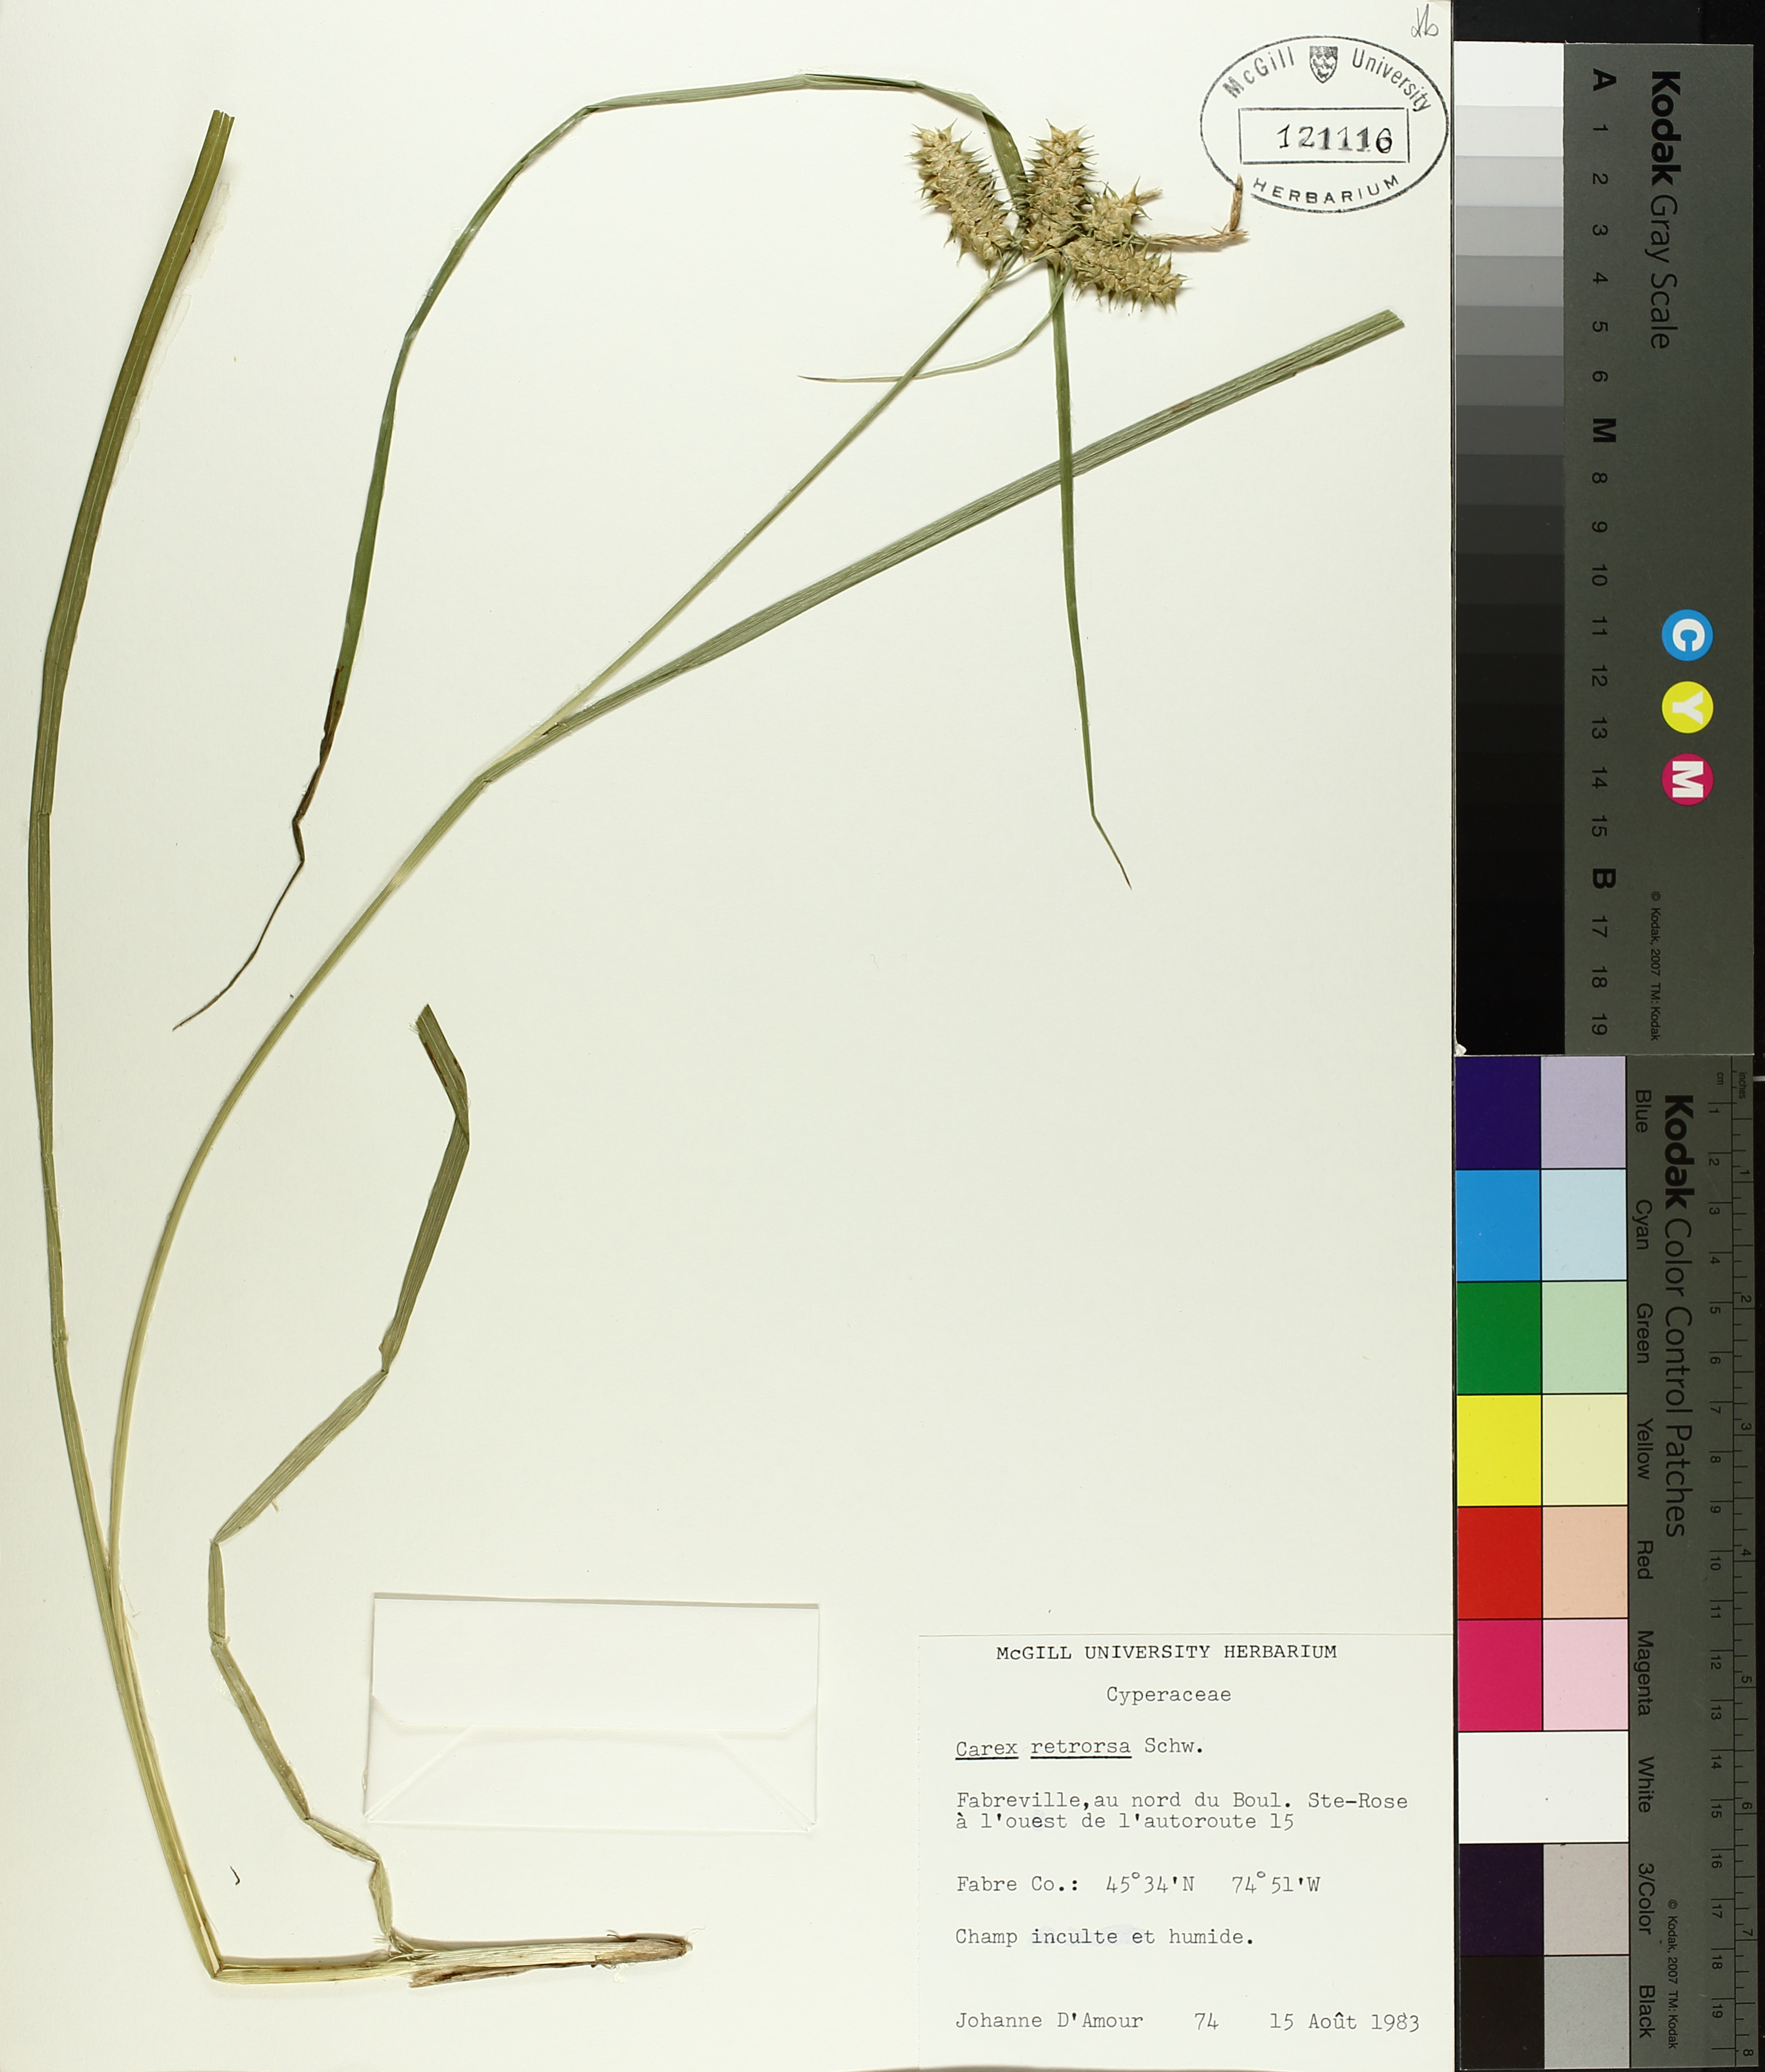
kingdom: Plantae
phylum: Tracheophyta
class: Liliopsida
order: Poales
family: Cyperaceae
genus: Carex
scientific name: Carex retrorsa
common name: Knot-sheath sedge
